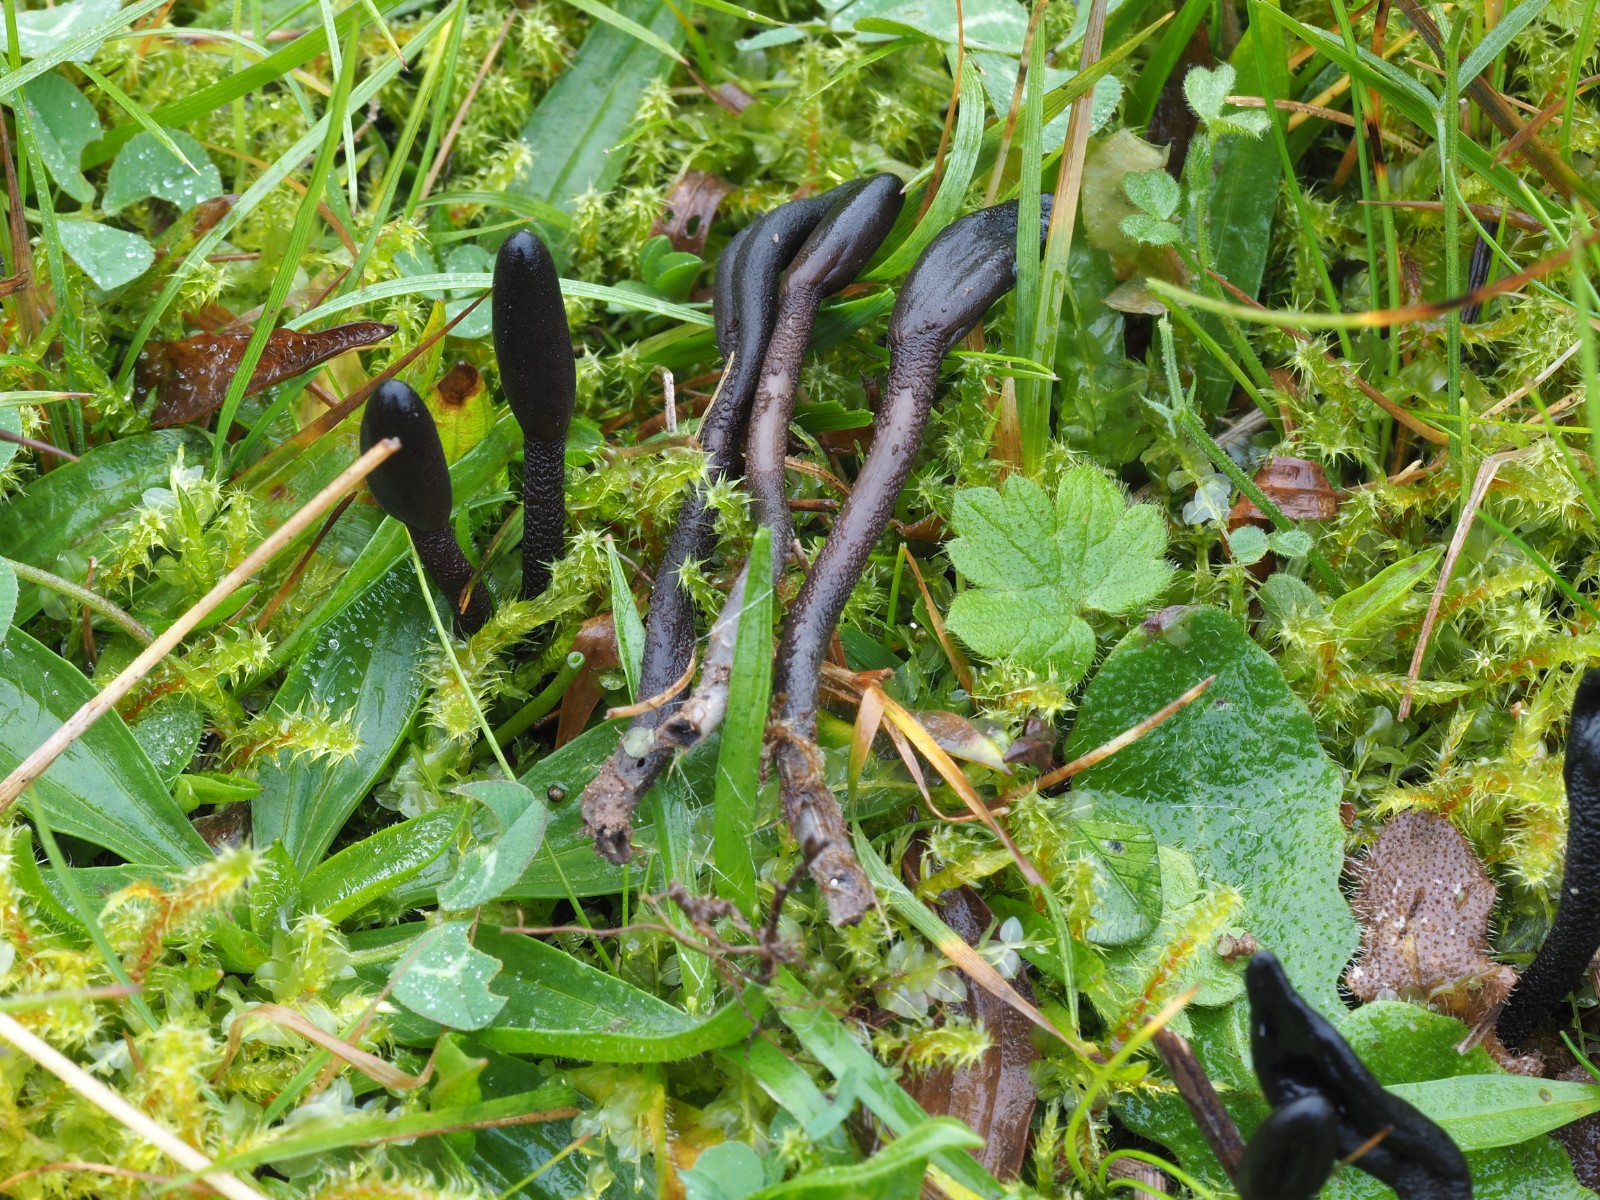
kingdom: Fungi
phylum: Ascomycota
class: Geoglossomycetes
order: Geoglossales
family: Geoglossaceae
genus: Geoglossum
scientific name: Geoglossum fallax
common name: småskællet jordtunge
